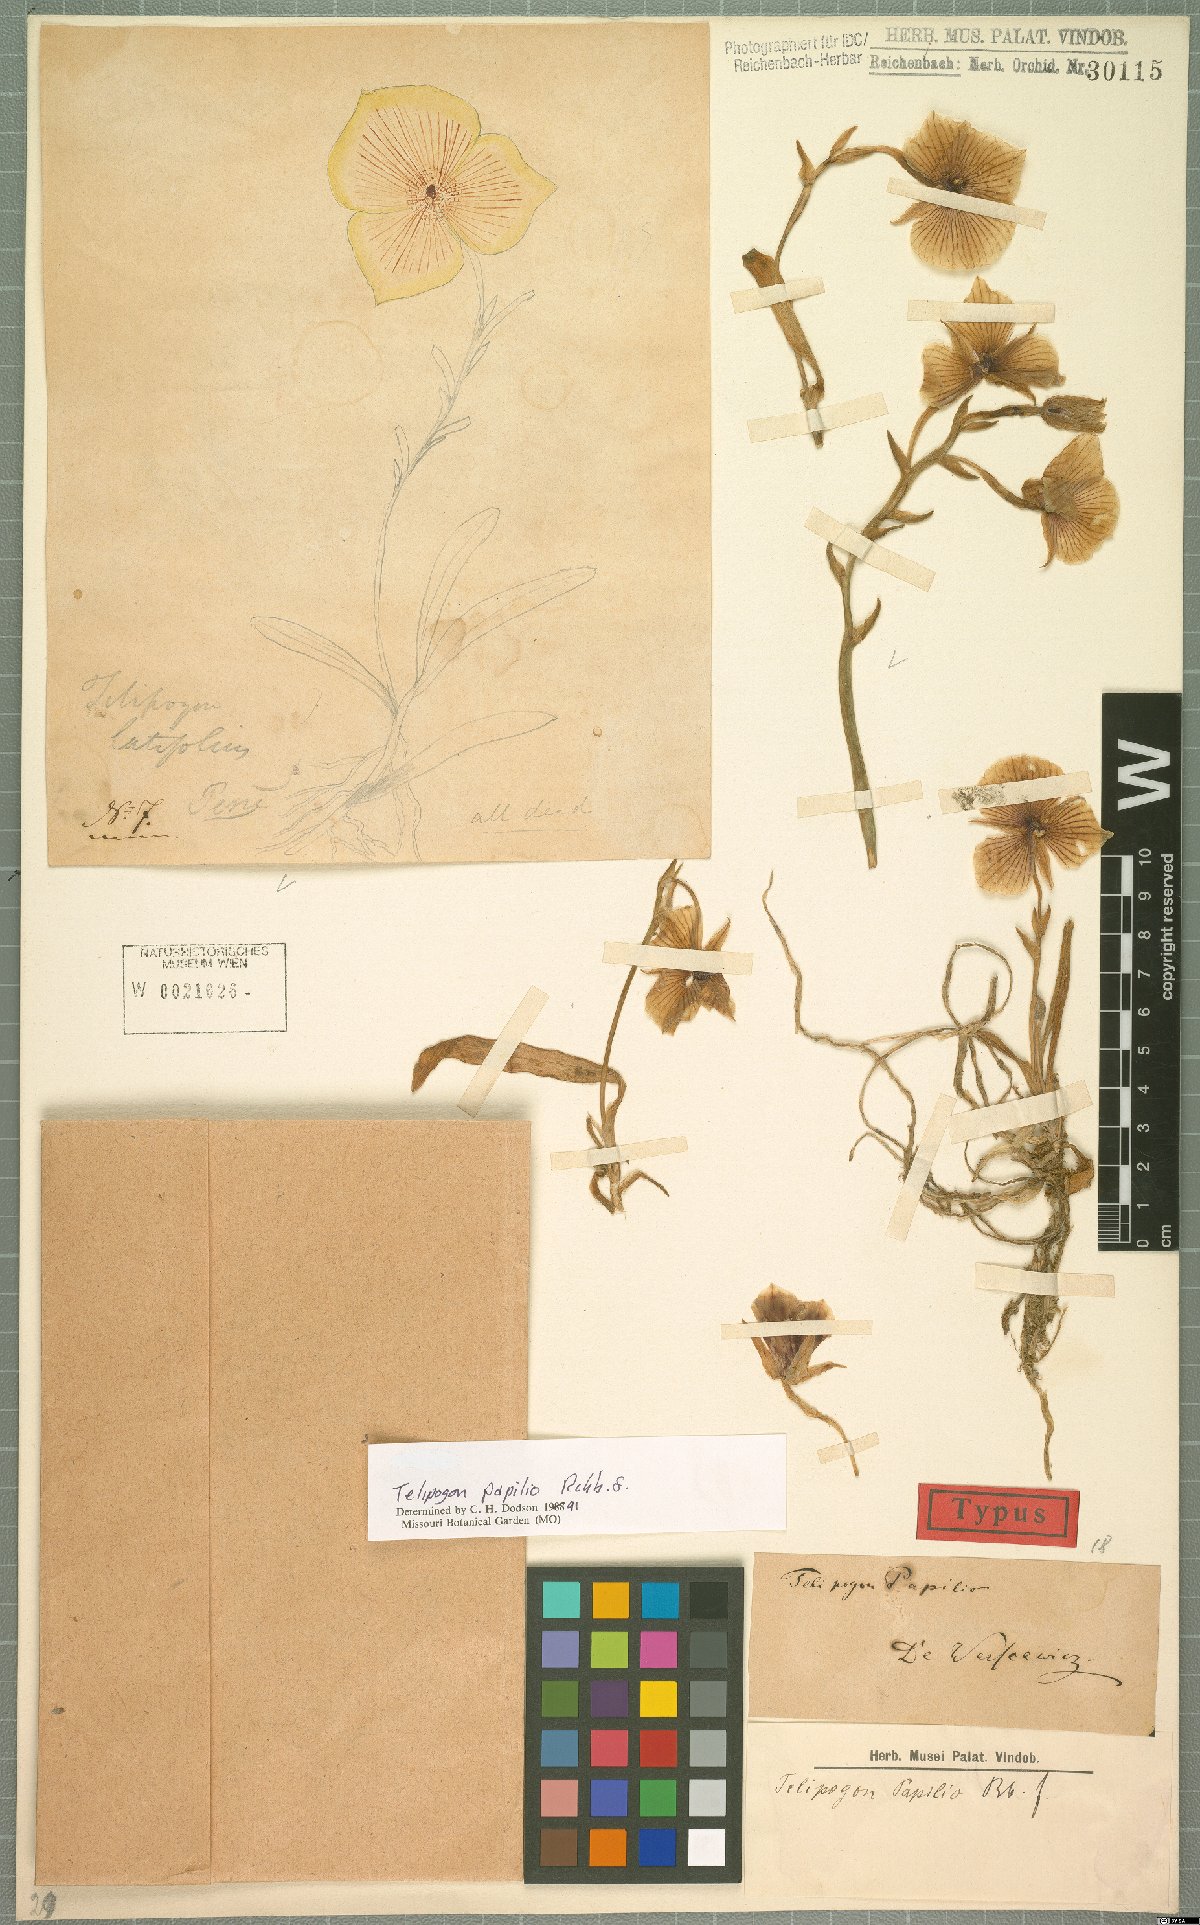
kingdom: Plantae
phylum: Tracheophyta
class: Liliopsida
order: Asparagales
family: Orchidaceae
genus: Telipogon
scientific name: Telipogon papilio
